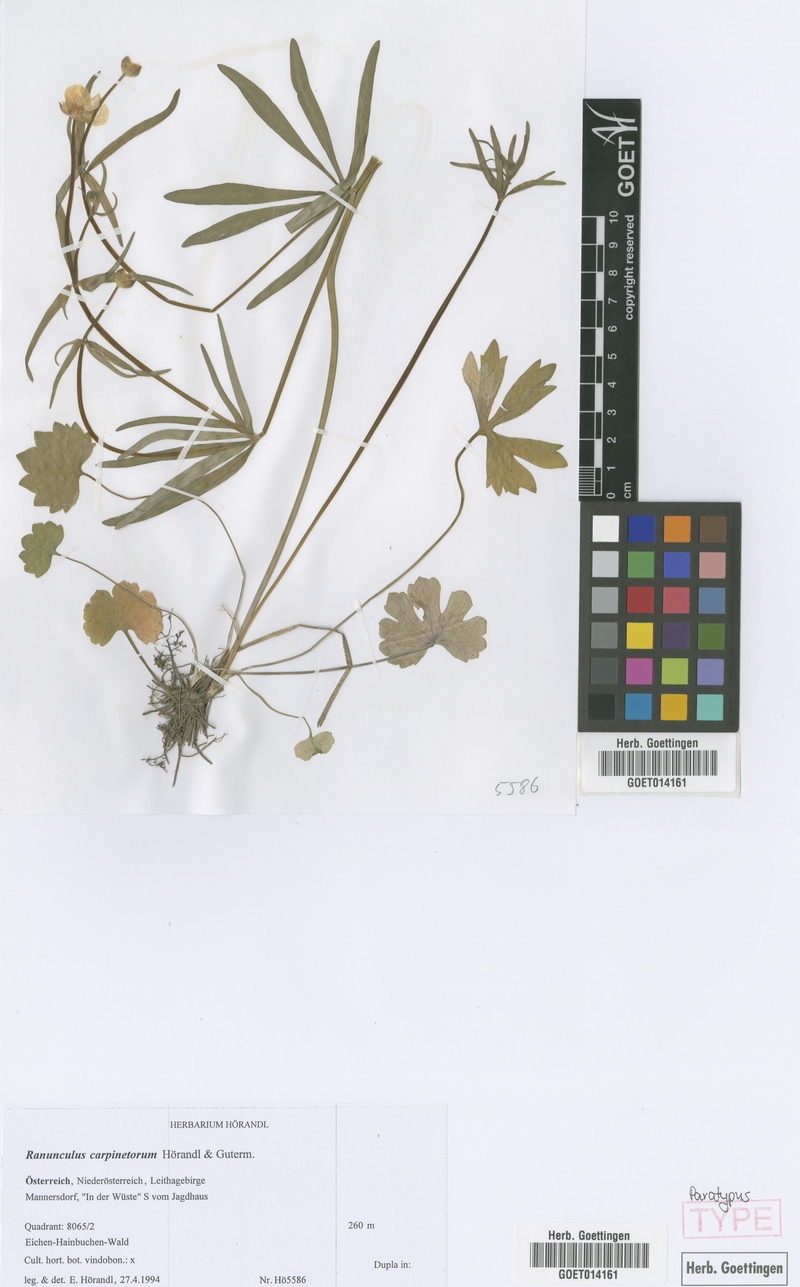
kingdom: Plantae
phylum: Tracheophyta
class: Magnoliopsida
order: Ranunculales
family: Ranunculaceae
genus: Ranunculus
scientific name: Ranunculus carpinetorum
